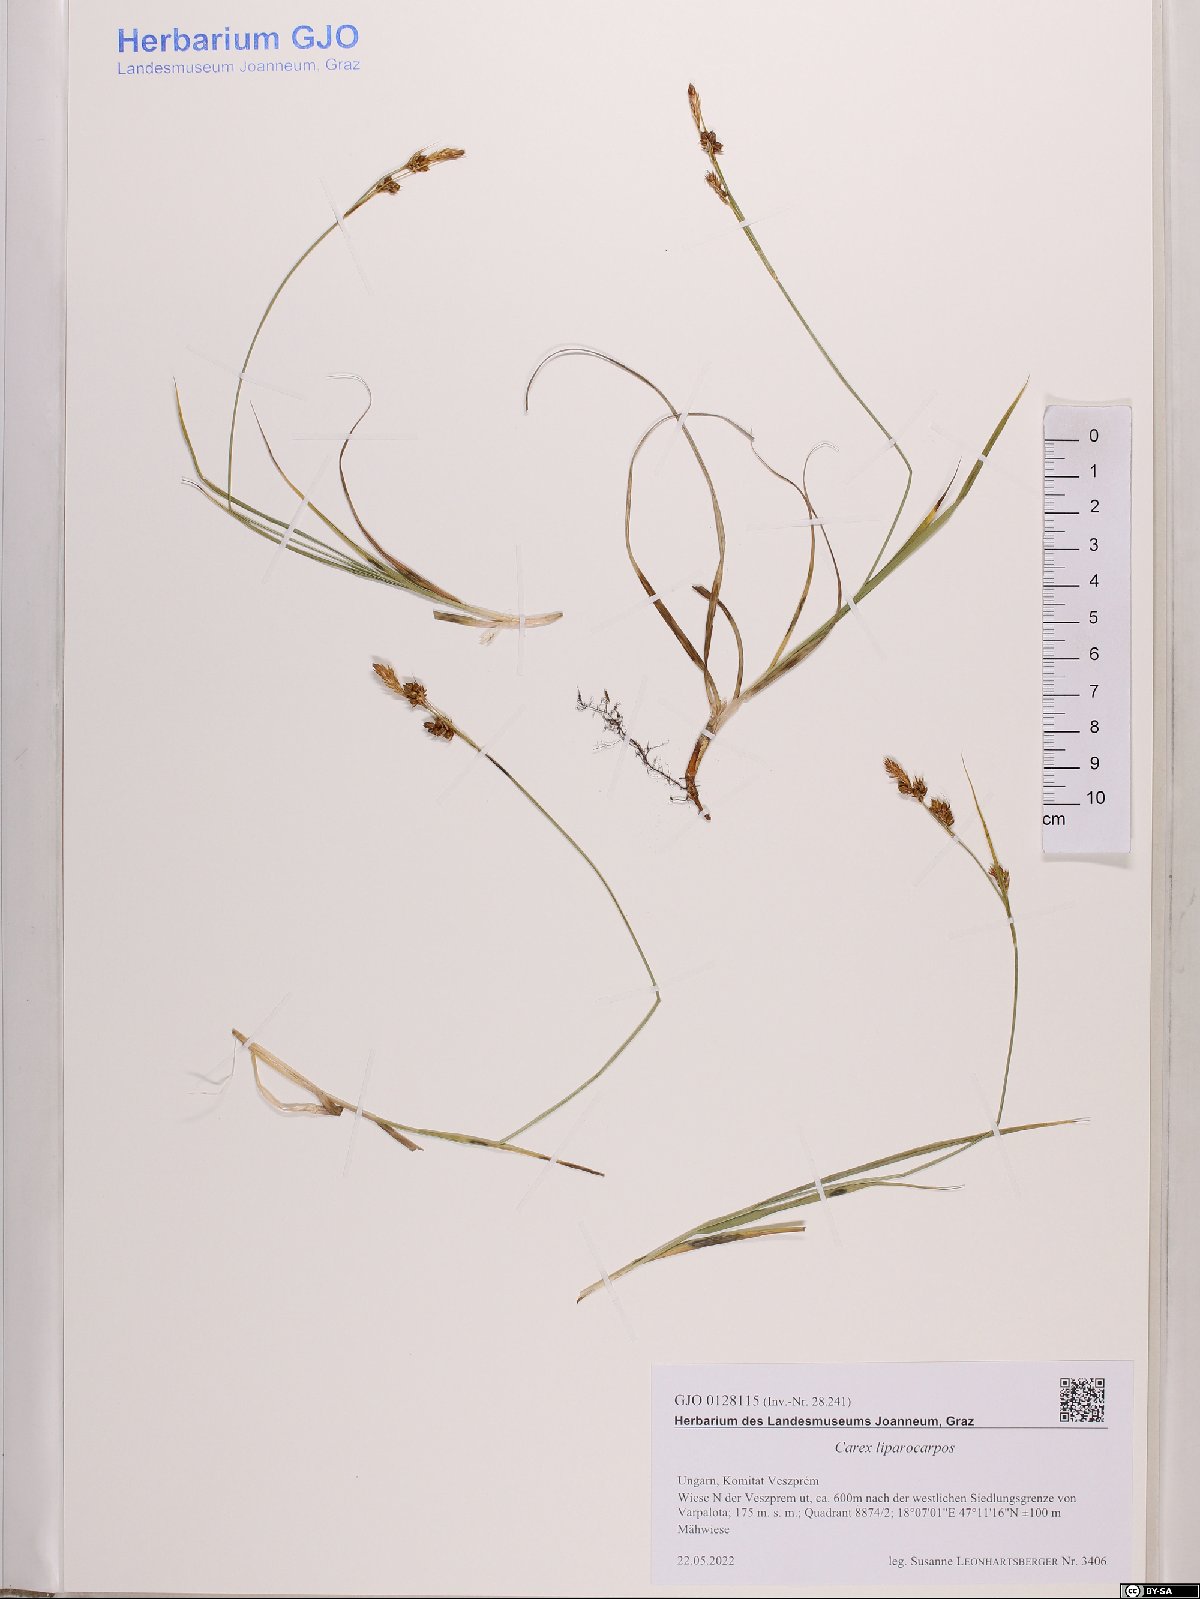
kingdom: Plantae
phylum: Tracheophyta
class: Liliopsida
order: Poales
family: Cyperaceae
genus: Carex
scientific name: Carex liparocarpos
